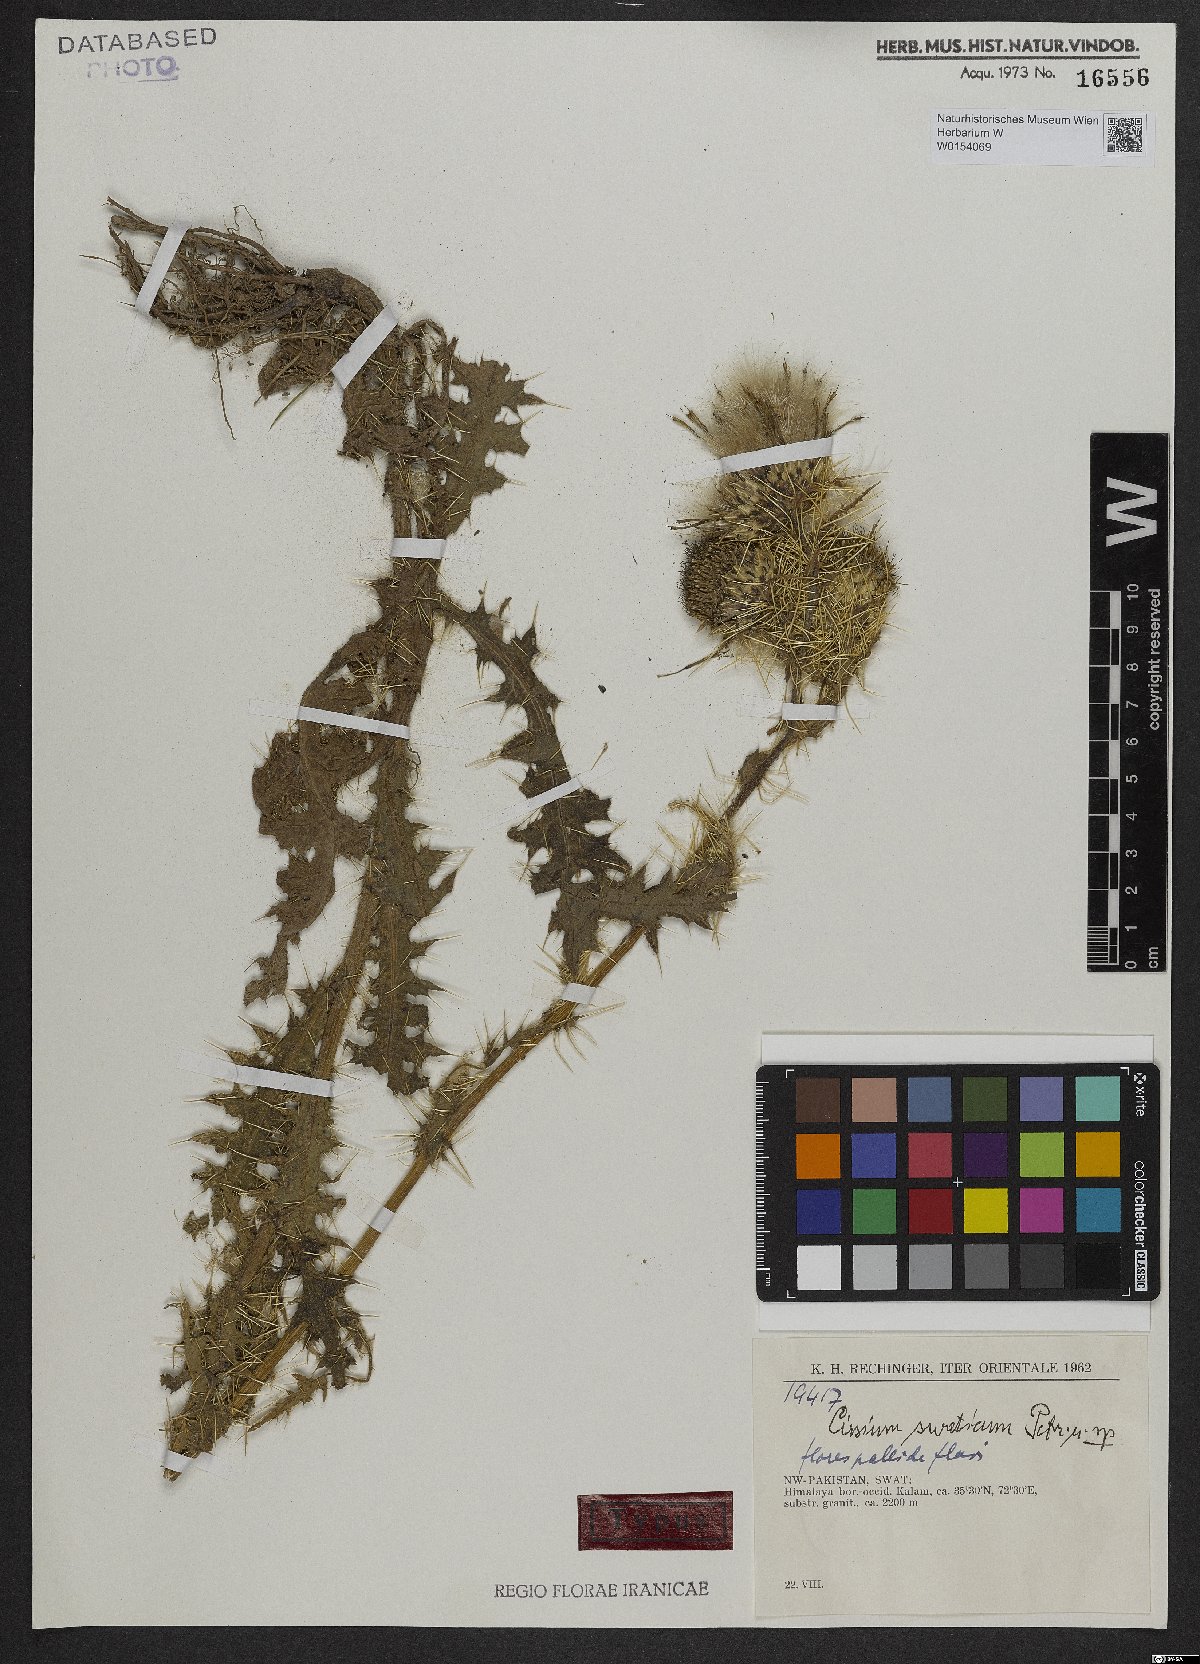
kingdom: Plantae
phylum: Tracheophyta
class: Magnoliopsida
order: Asterales
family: Asteraceae
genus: Cirsium
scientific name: Cirsium swaticum
